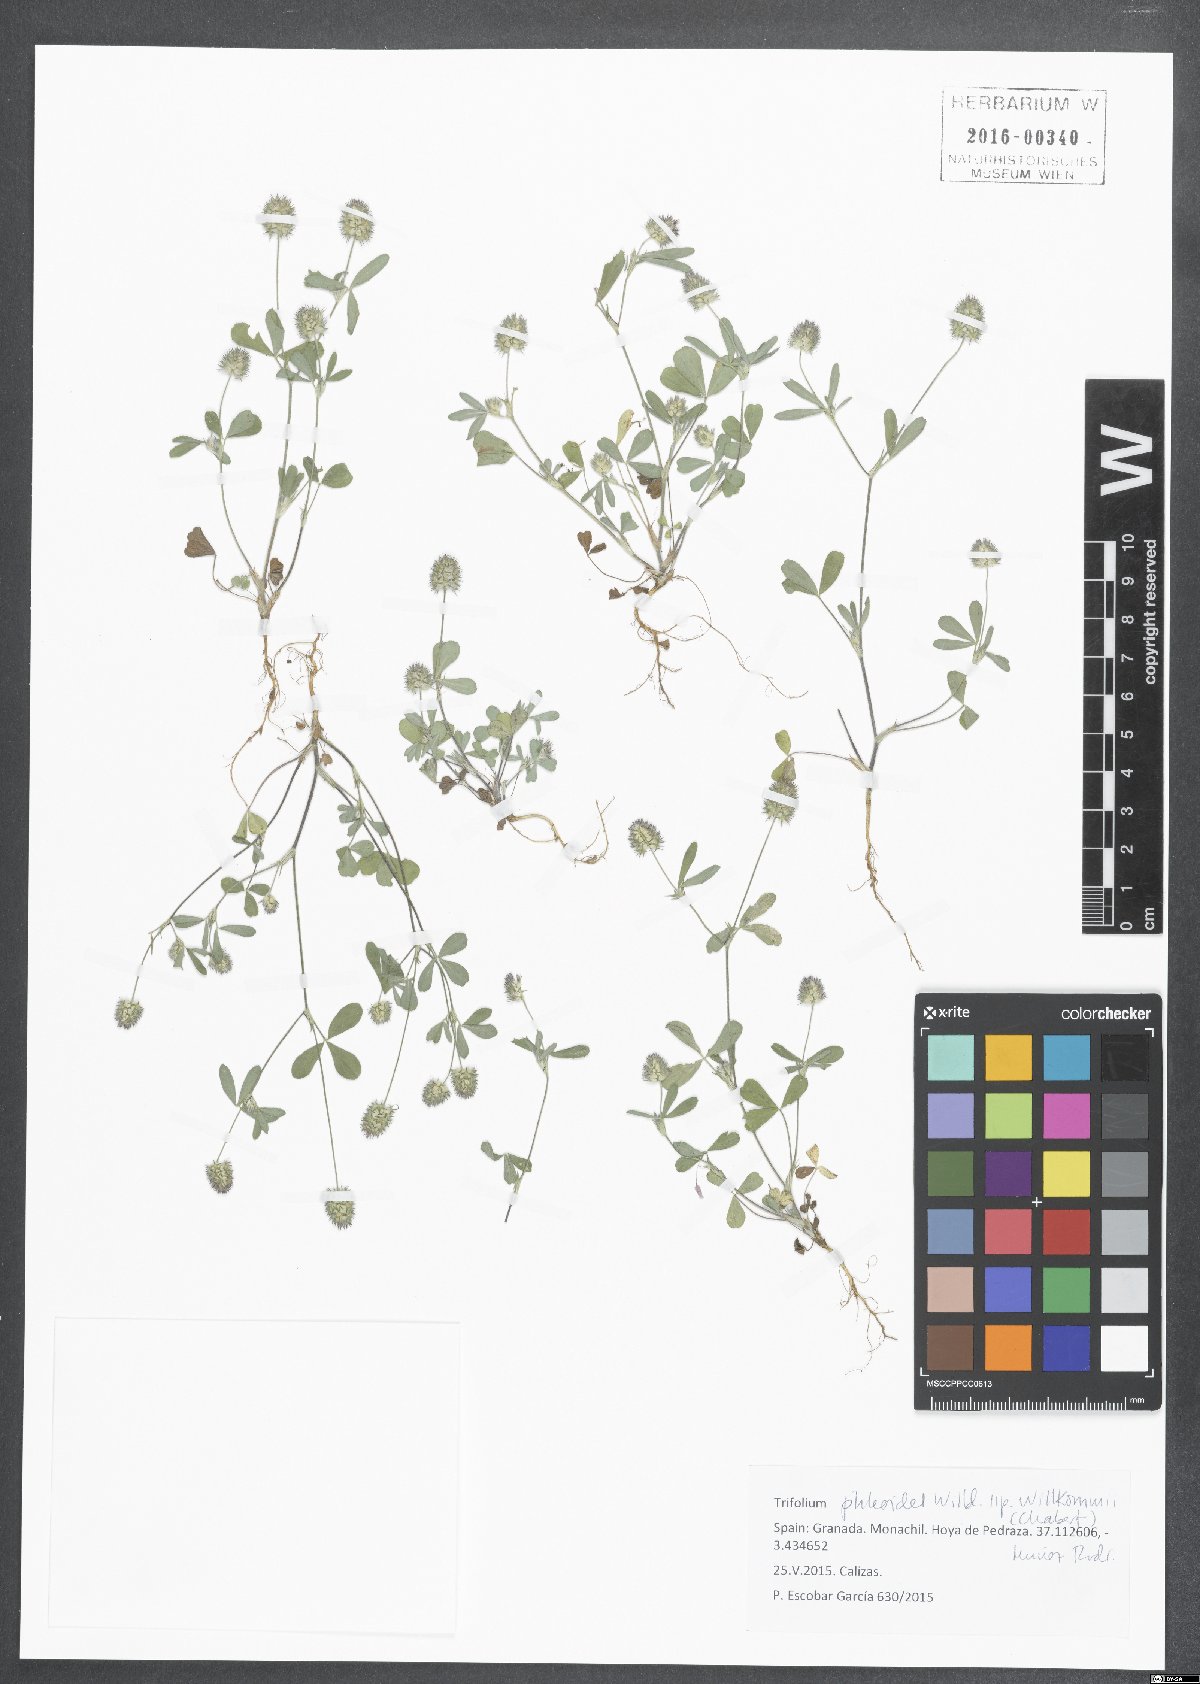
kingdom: Plantae
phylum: Tracheophyta
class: Magnoliopsida
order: Fabales
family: Fabaceae
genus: Trifolium
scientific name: Trifolium phleoides
